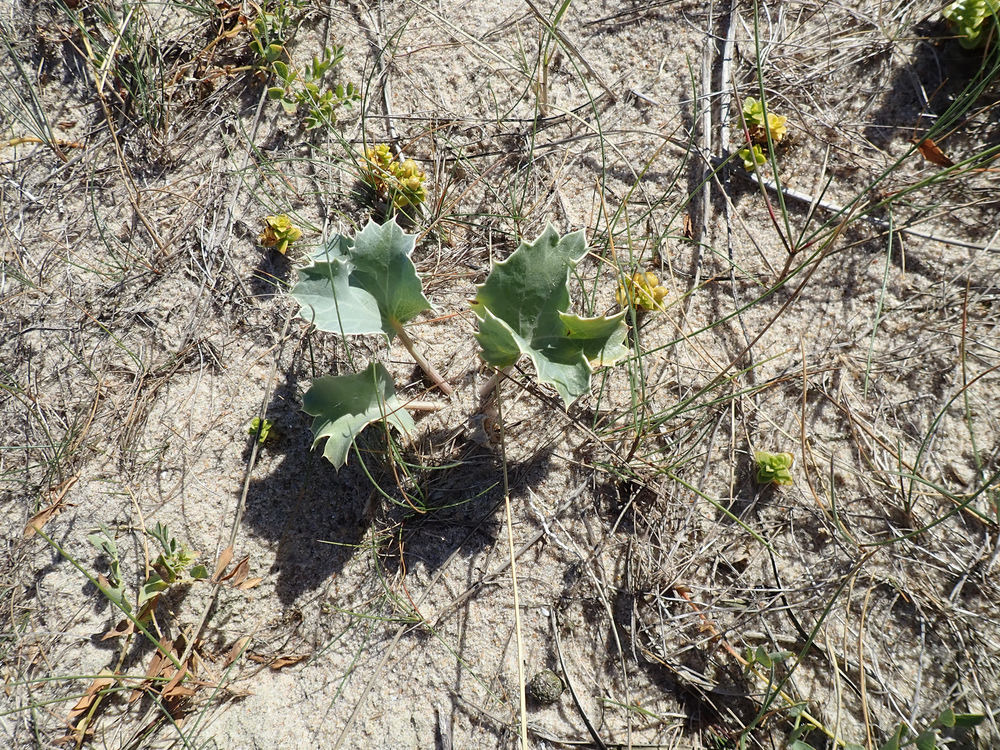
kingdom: Plantae
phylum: Tracheophyta
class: Magnoliopsida
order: Apiales
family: Apiaceae
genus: Eryngium
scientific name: Eryngium maritimum
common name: Strand-mandstro
